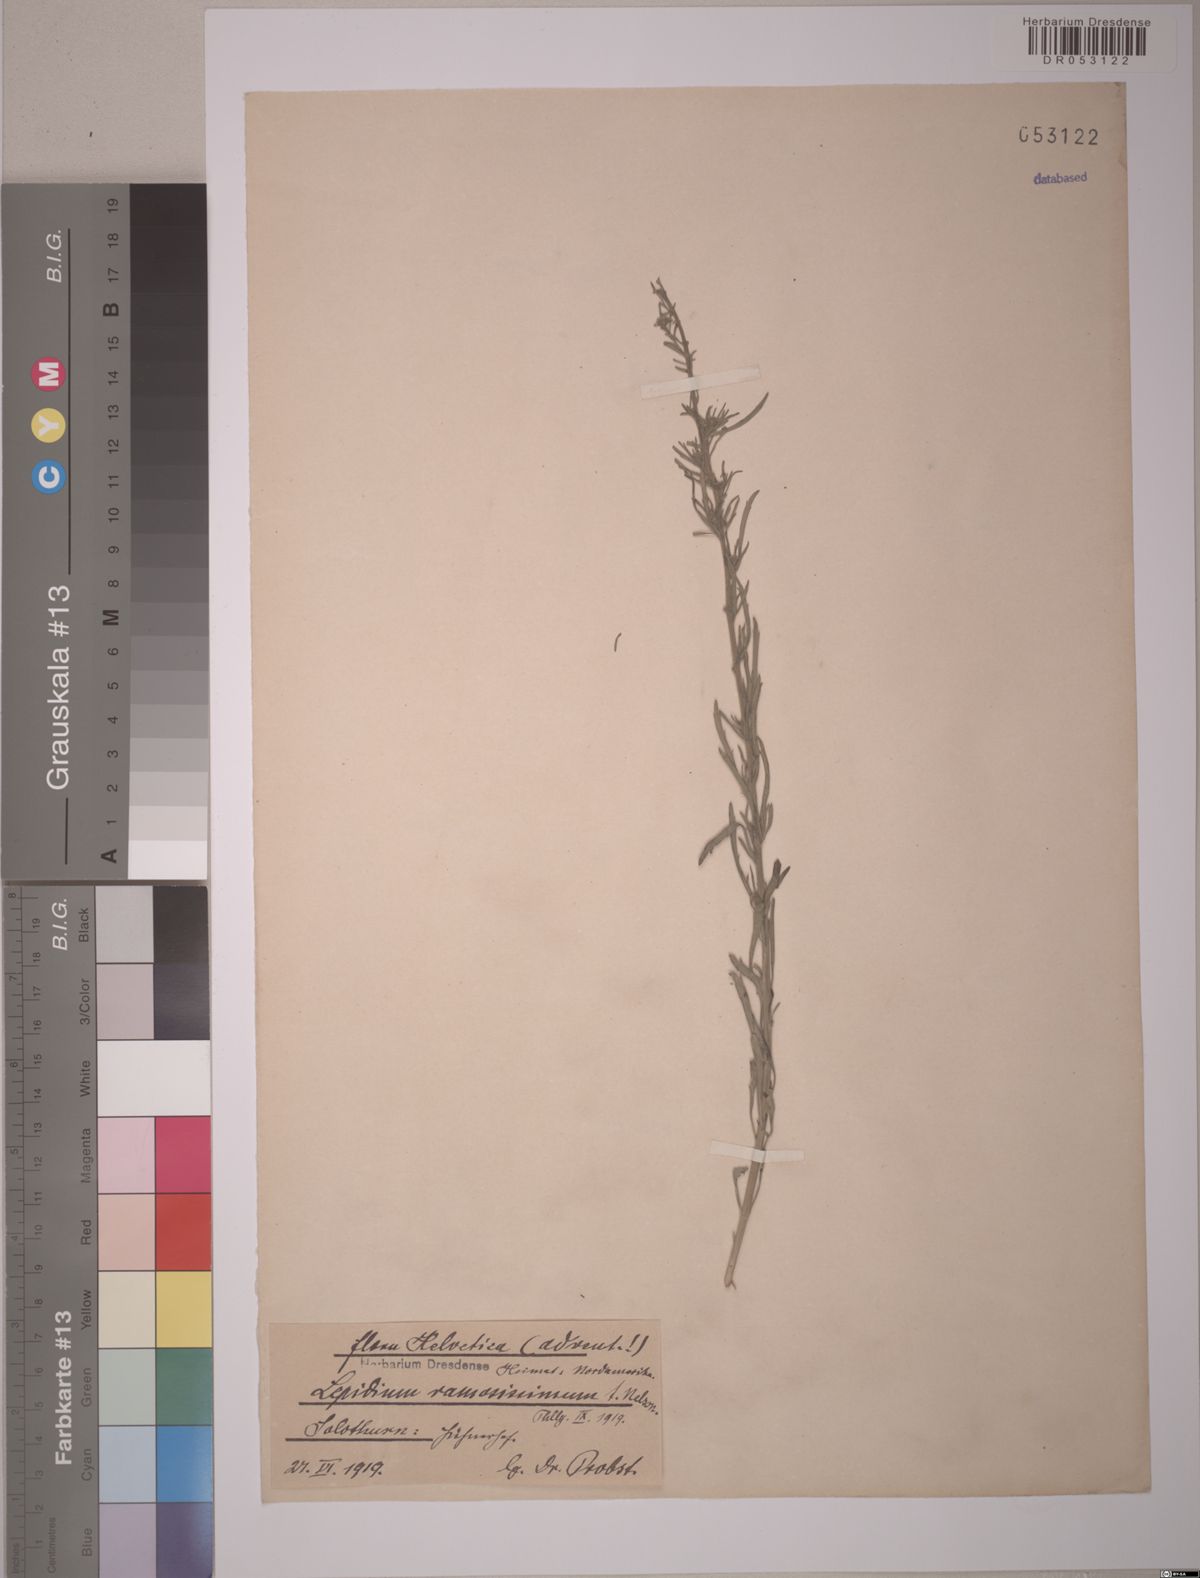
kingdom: Plantae
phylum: Tracheophyta
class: Magnoliopsida
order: Brassicales
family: Brassicaceae
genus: Lepidium
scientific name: Lepidium ramosissimum
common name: Bushy peppergrass
